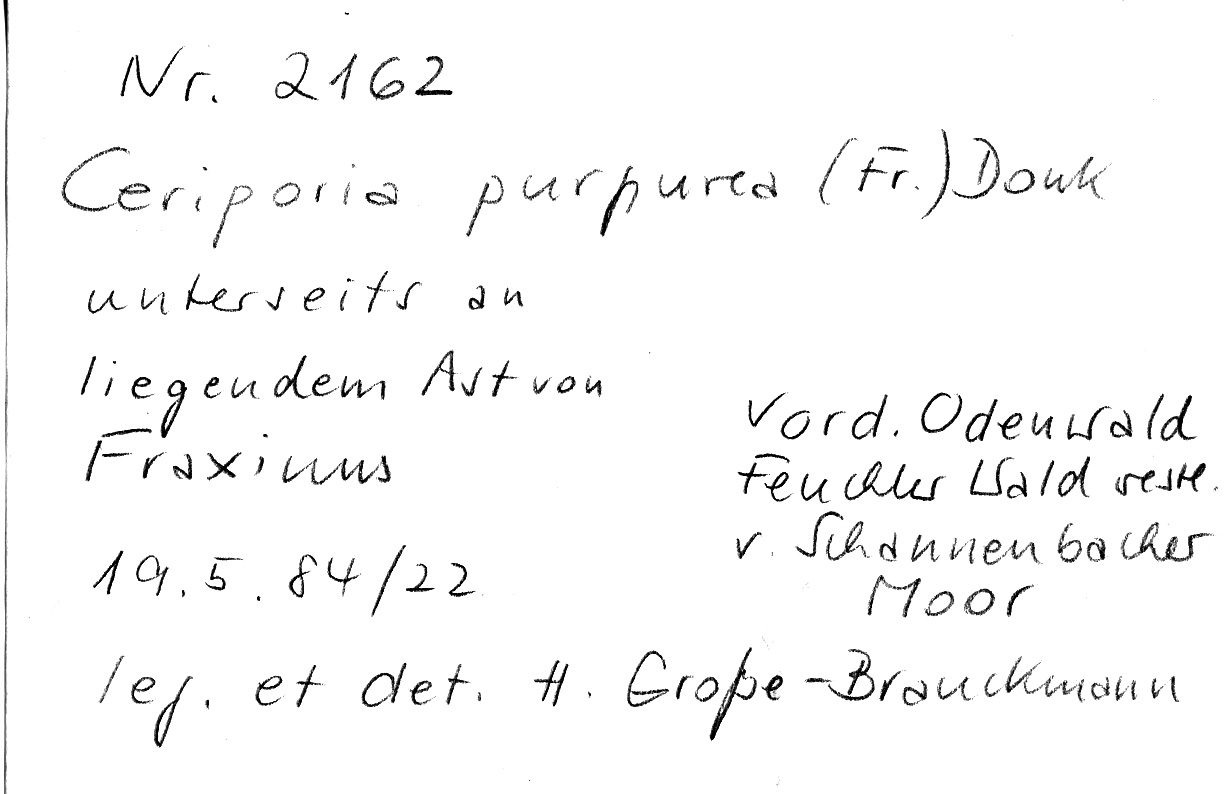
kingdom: Fungi
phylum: Basidiomycota
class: Agaricomycetes
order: Polyporales
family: Irpicaceae
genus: Ceriporia
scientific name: Ceriporia purpurea
